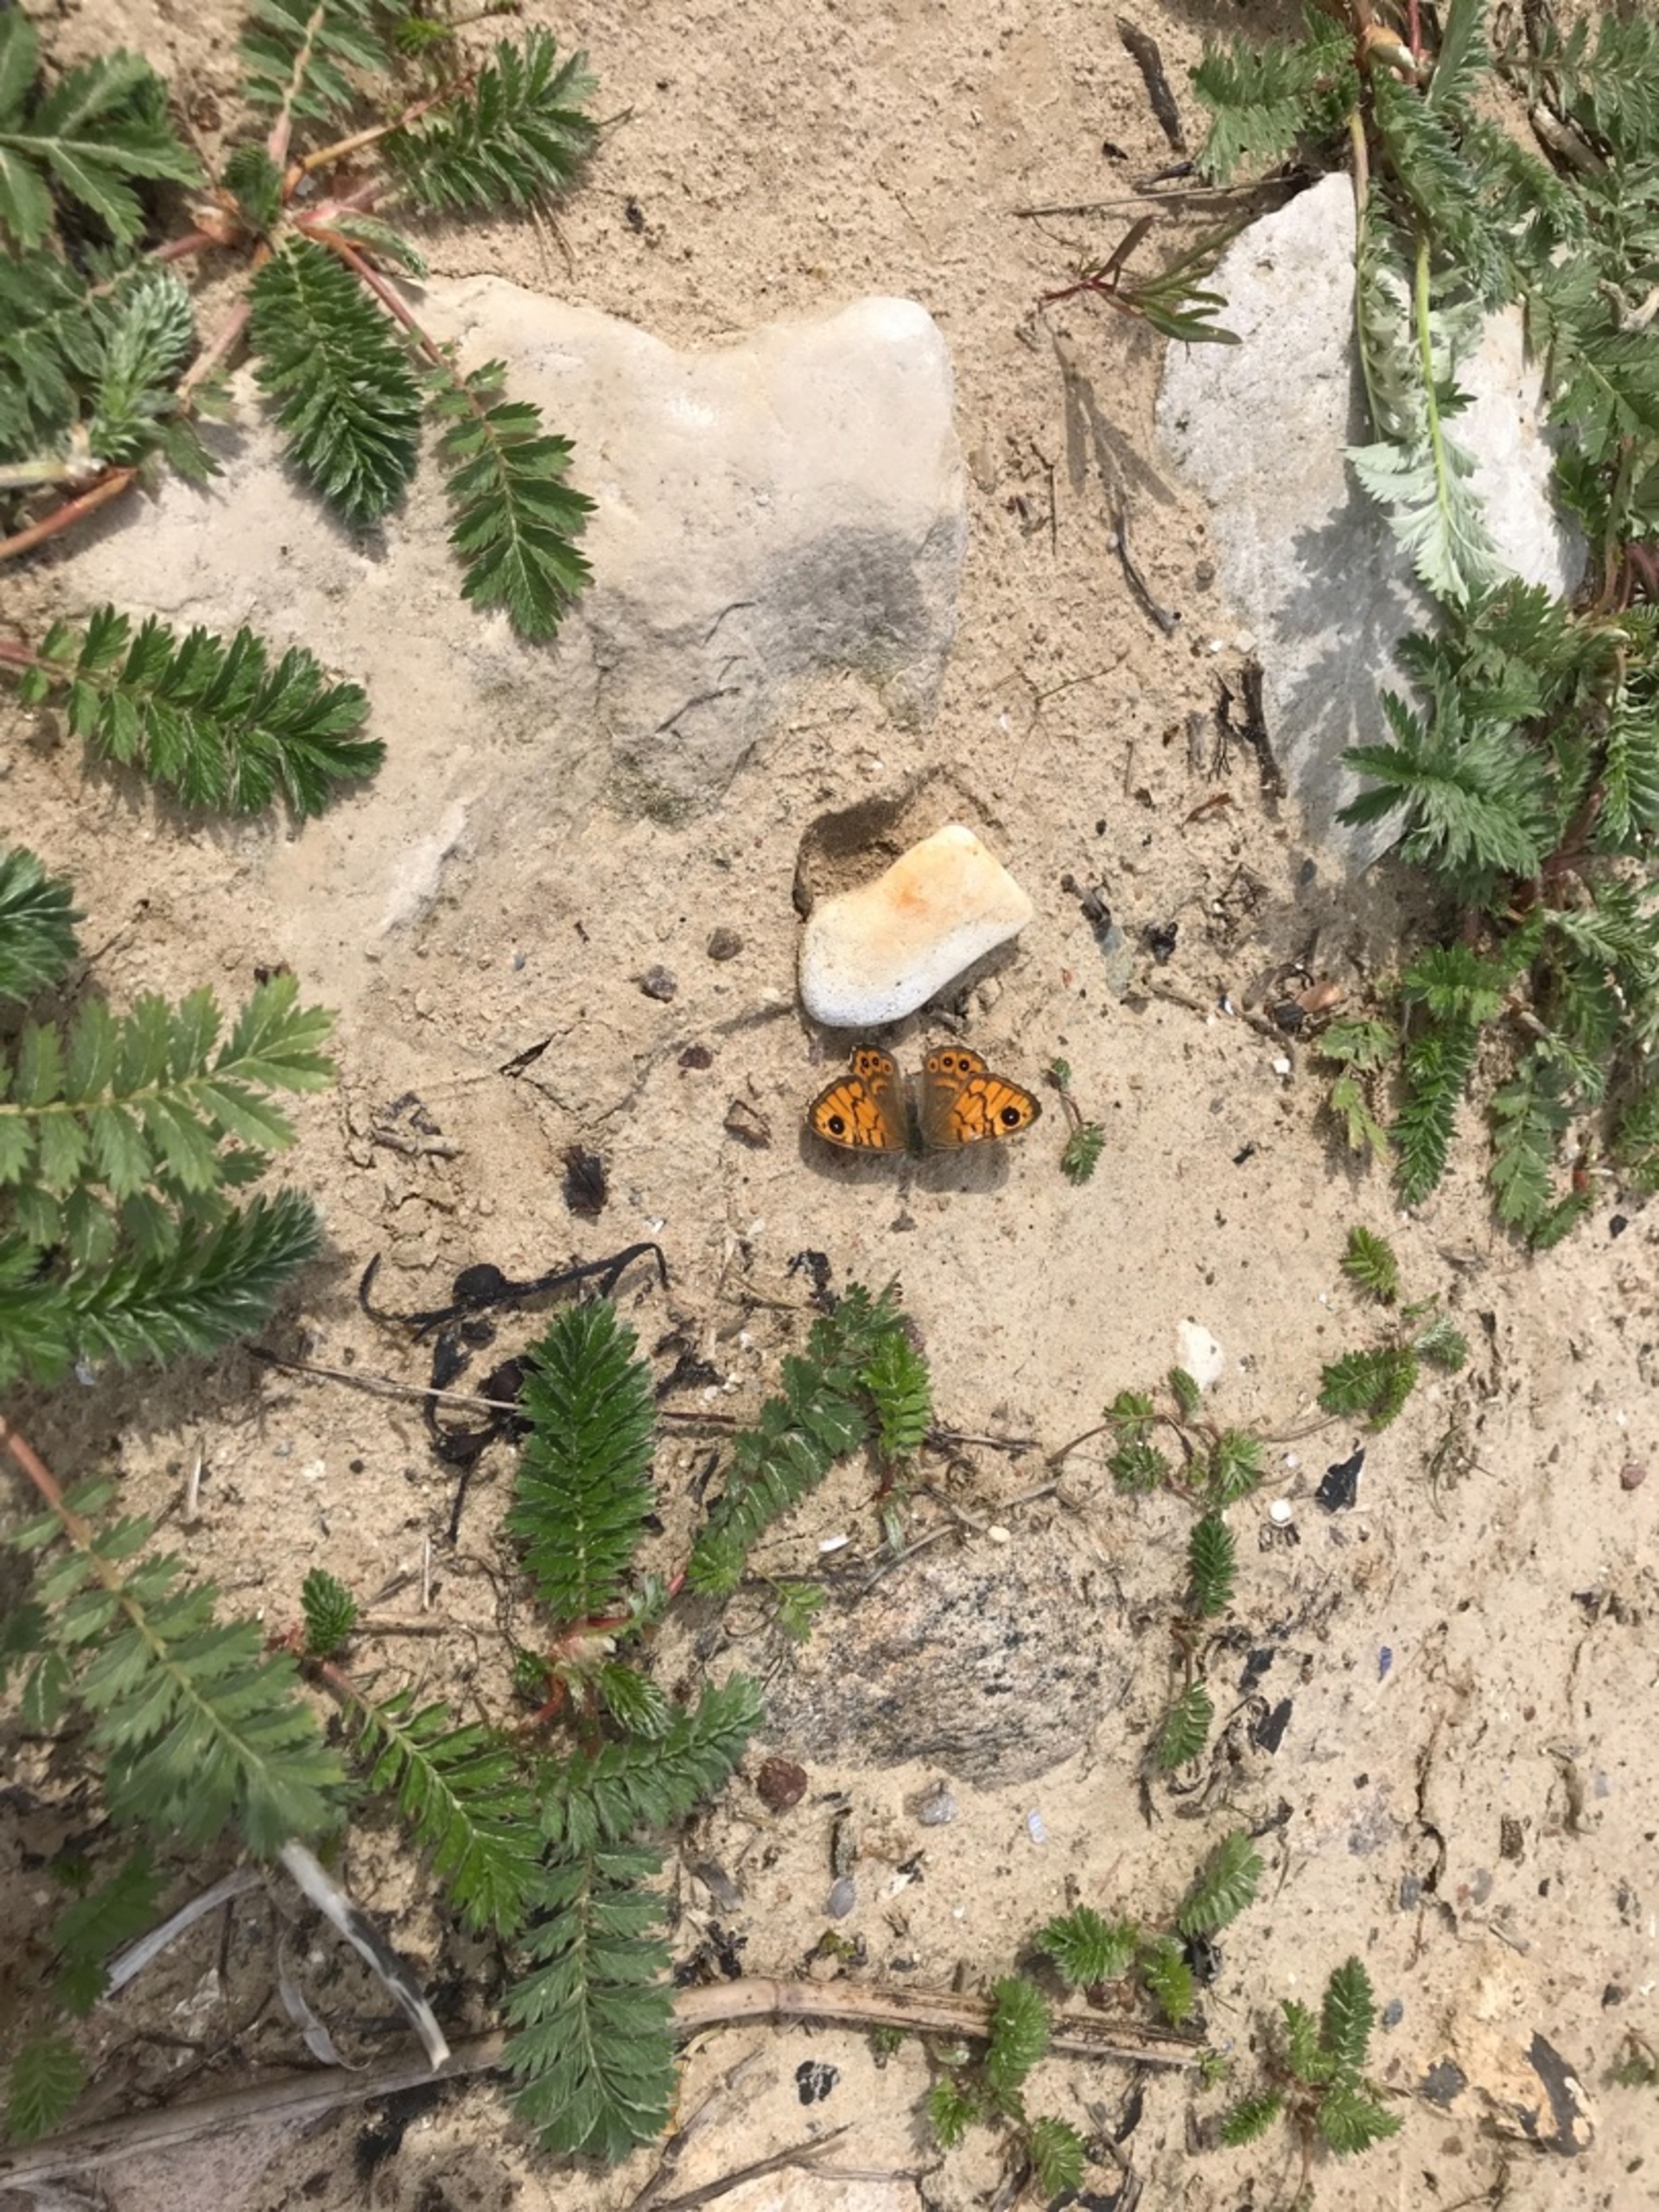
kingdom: Animalia
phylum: Arthropoda
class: Insecta
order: Lepidoptera
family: Nymphalidae
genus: Pararge
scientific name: Pararge Lasiommata megera
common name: Vejrandøje
